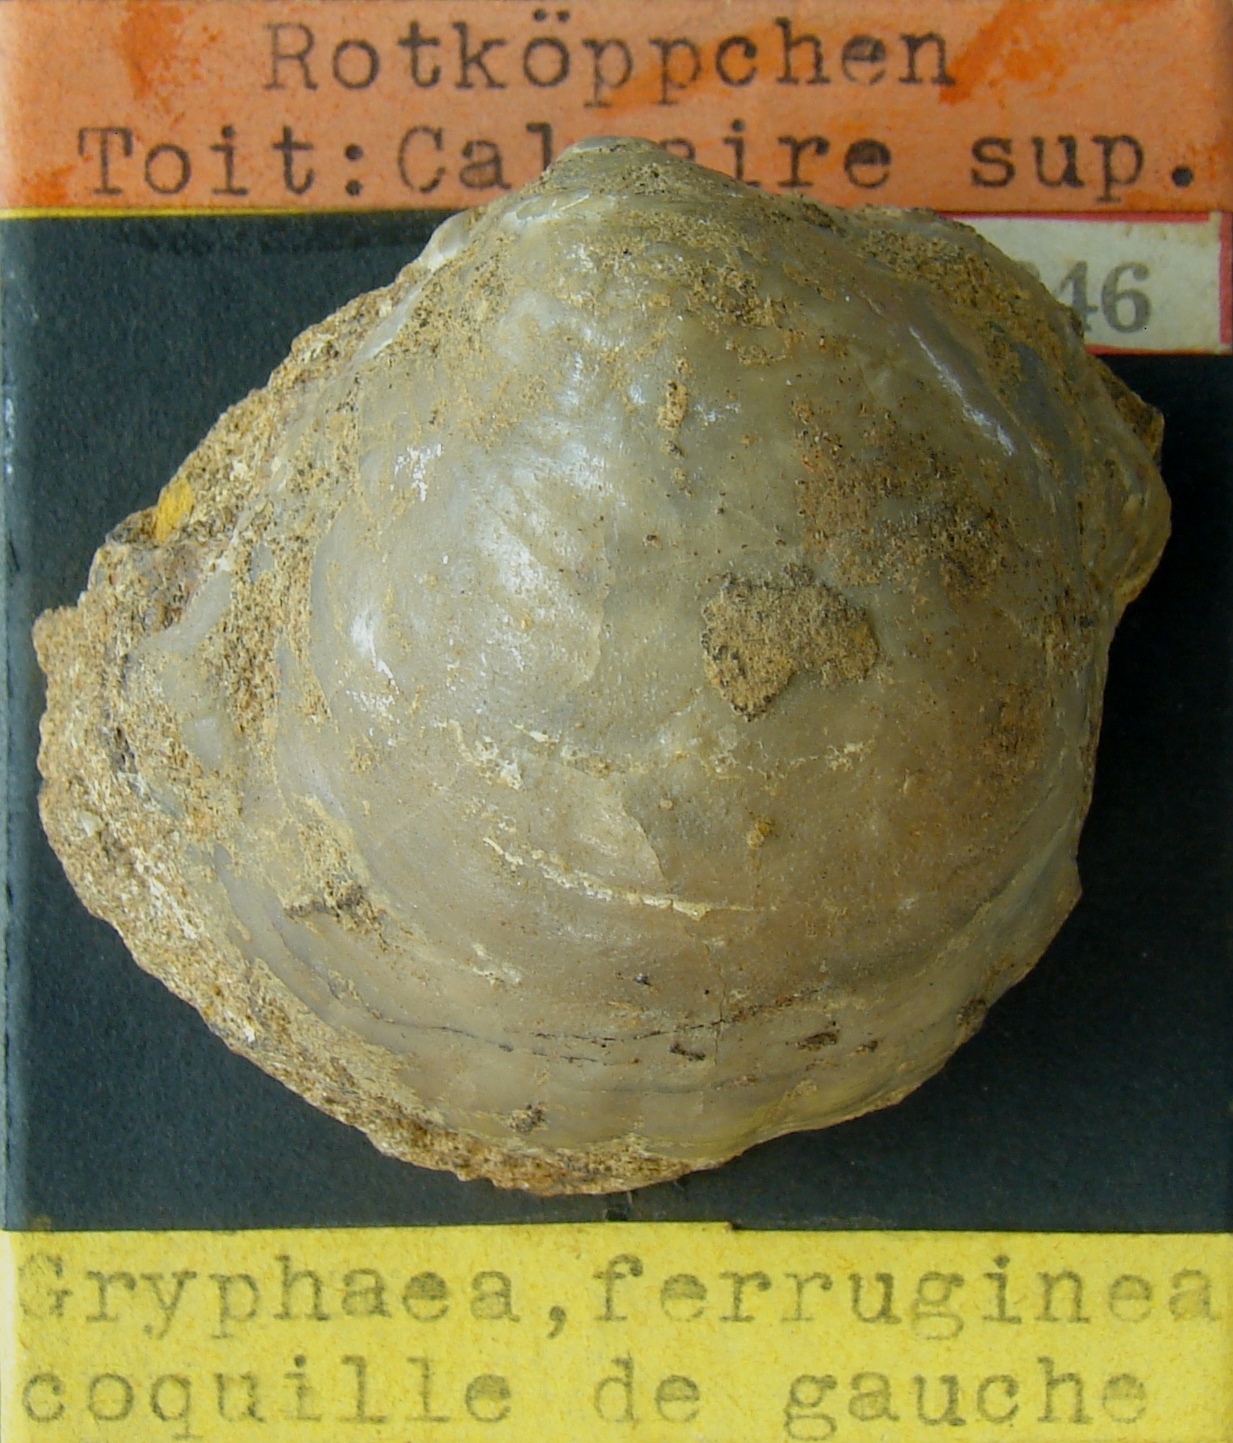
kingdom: Animalia
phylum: Mollusca
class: Bivalvia
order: Ostreida
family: Gryphaeidae
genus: Gryphaea
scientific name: Gryphaea
